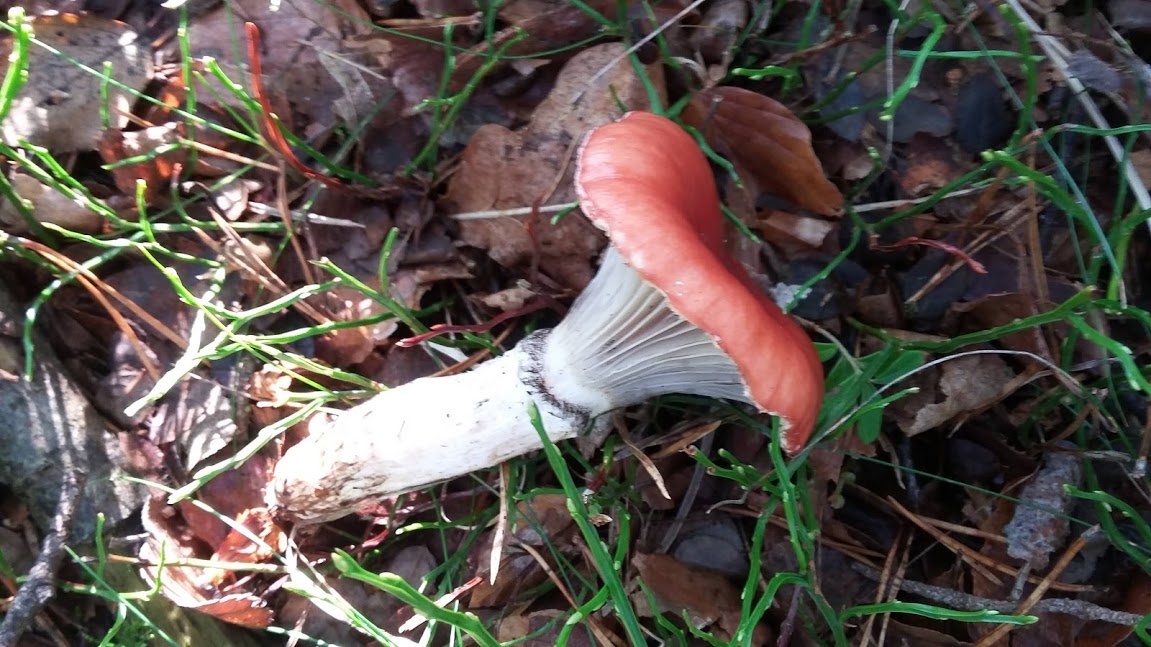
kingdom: Fungi
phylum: Basidiomycota
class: Agaricomycetes
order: Boletales
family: Gomphidiaceae
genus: Gomphidius
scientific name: Gomphidius roseus
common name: rosenrød slimslør
